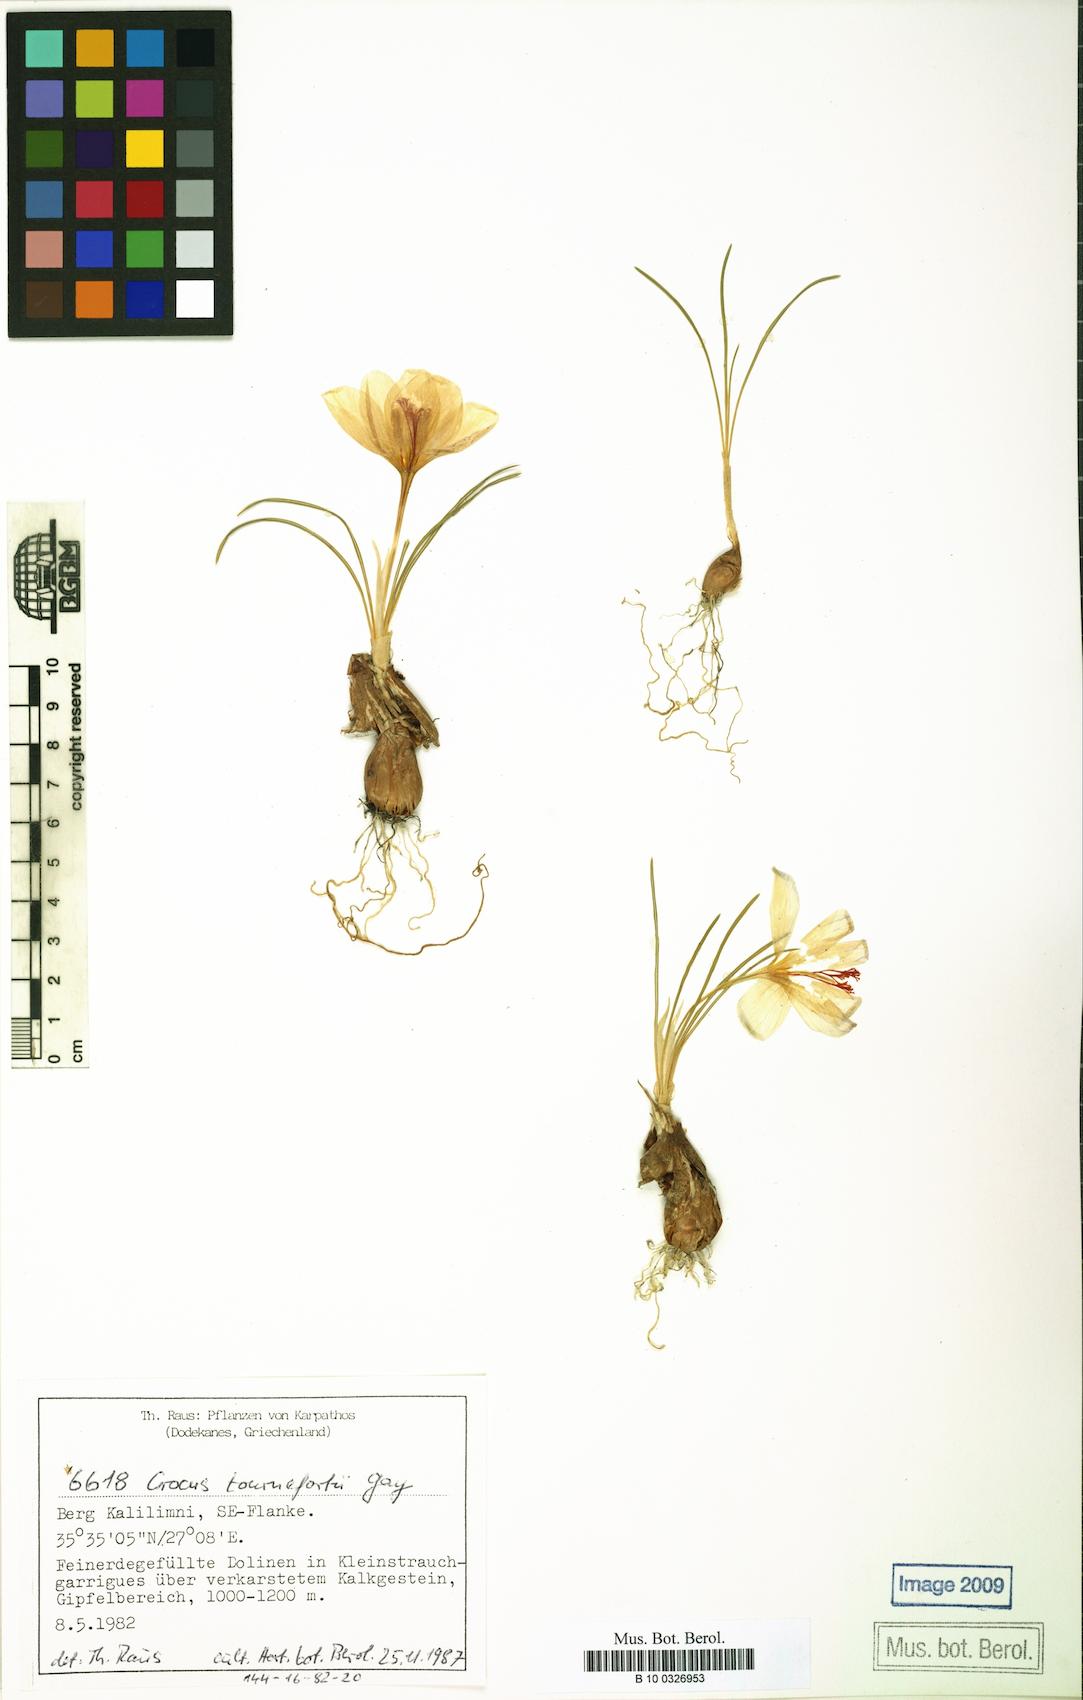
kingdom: Plantae
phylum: Tracheophyta
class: Liliopsida
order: Asparagales
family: Iridaceae
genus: Crocus
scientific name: Crocus tournefortii
